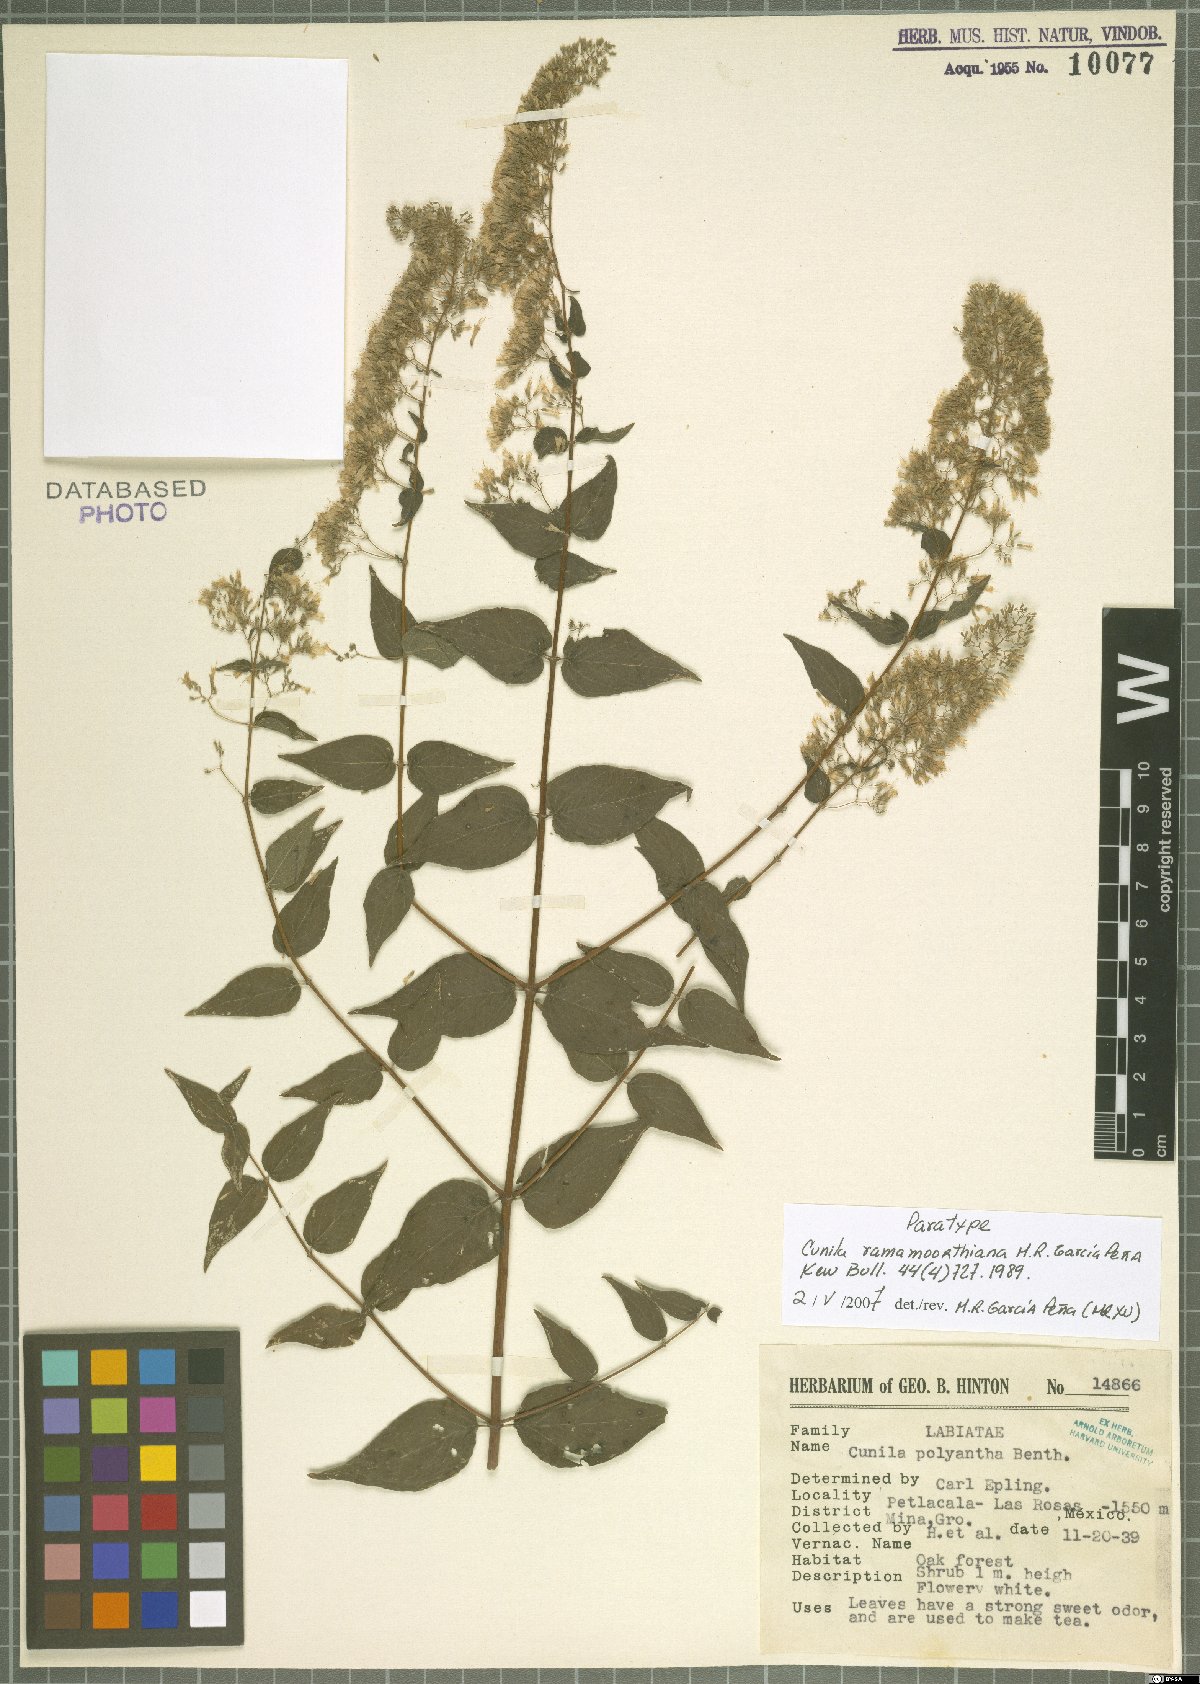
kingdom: Plantae
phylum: Tracheophyta
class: Magnoliopsida
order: Lamiales
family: Lamiaceae
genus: Cunila
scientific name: Cunila ramamoorthiana
